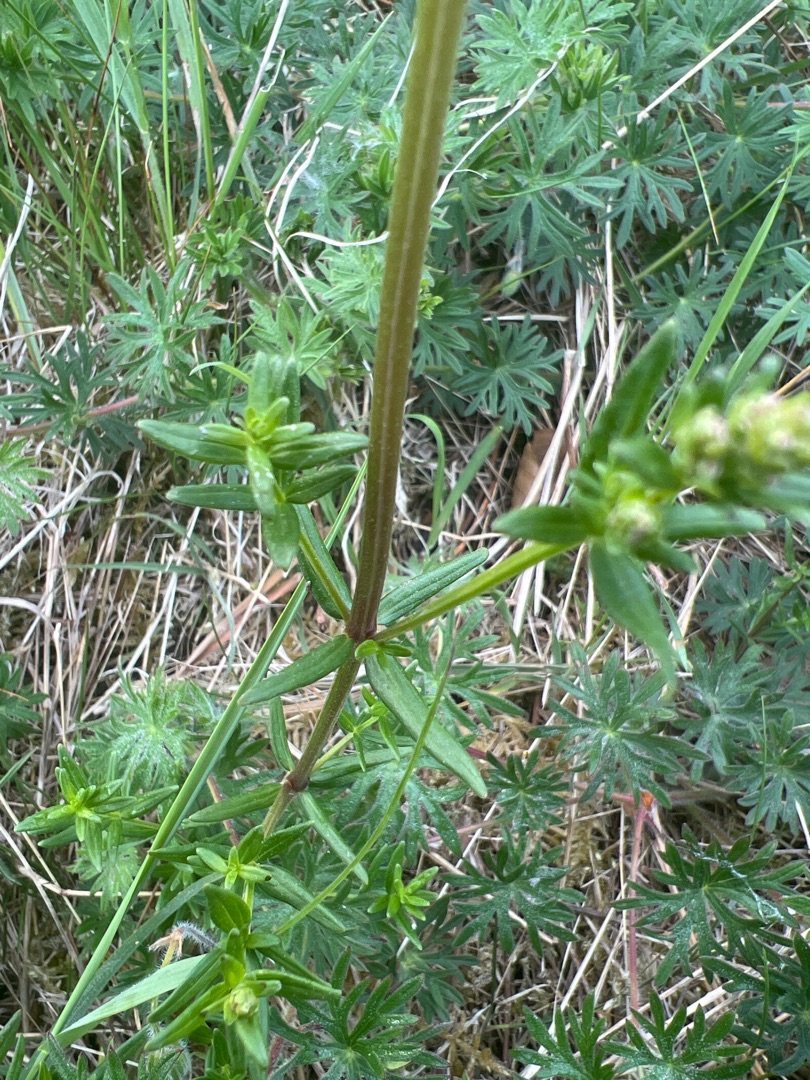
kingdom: Plantae
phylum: Tracheophyta
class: Magnoliopsida
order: Gentianales
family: Rubiaceae
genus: Galium
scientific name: Galium boreale
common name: Trenervet snerre
